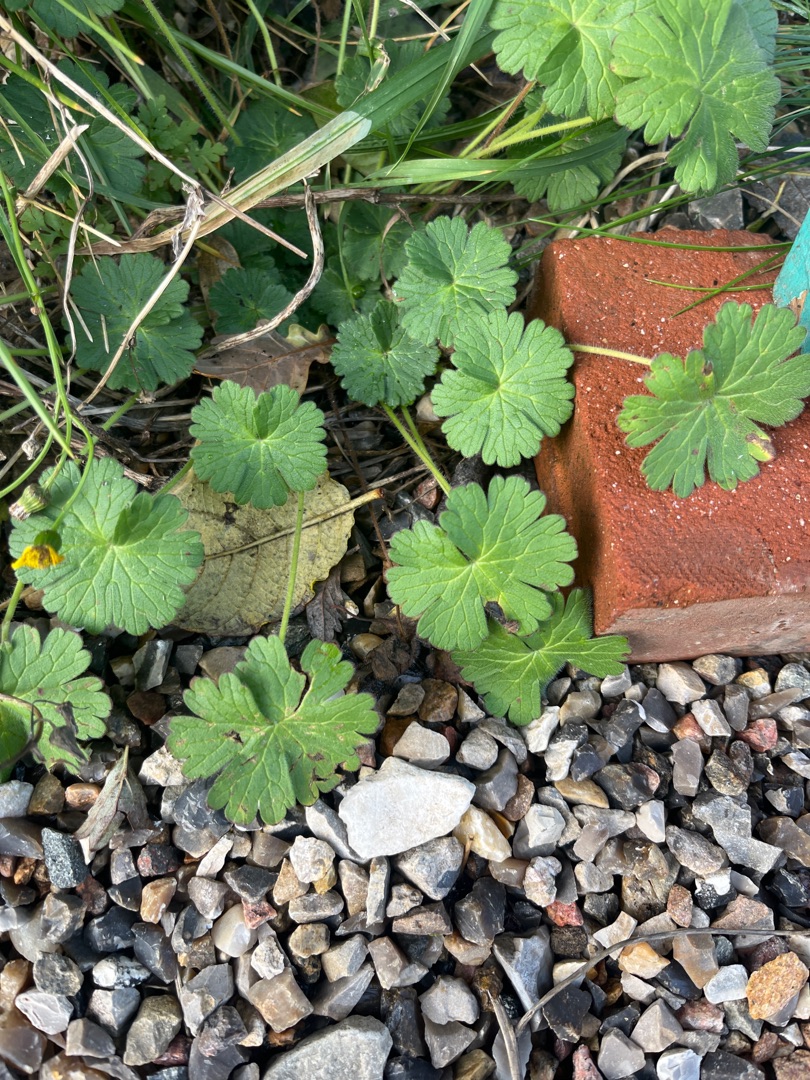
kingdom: Plantae
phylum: Tracheophyta
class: Magnoliopsida
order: Geraniales
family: Geraniaceae
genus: Geranium
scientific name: Geranium
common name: Storkenæbslægten
